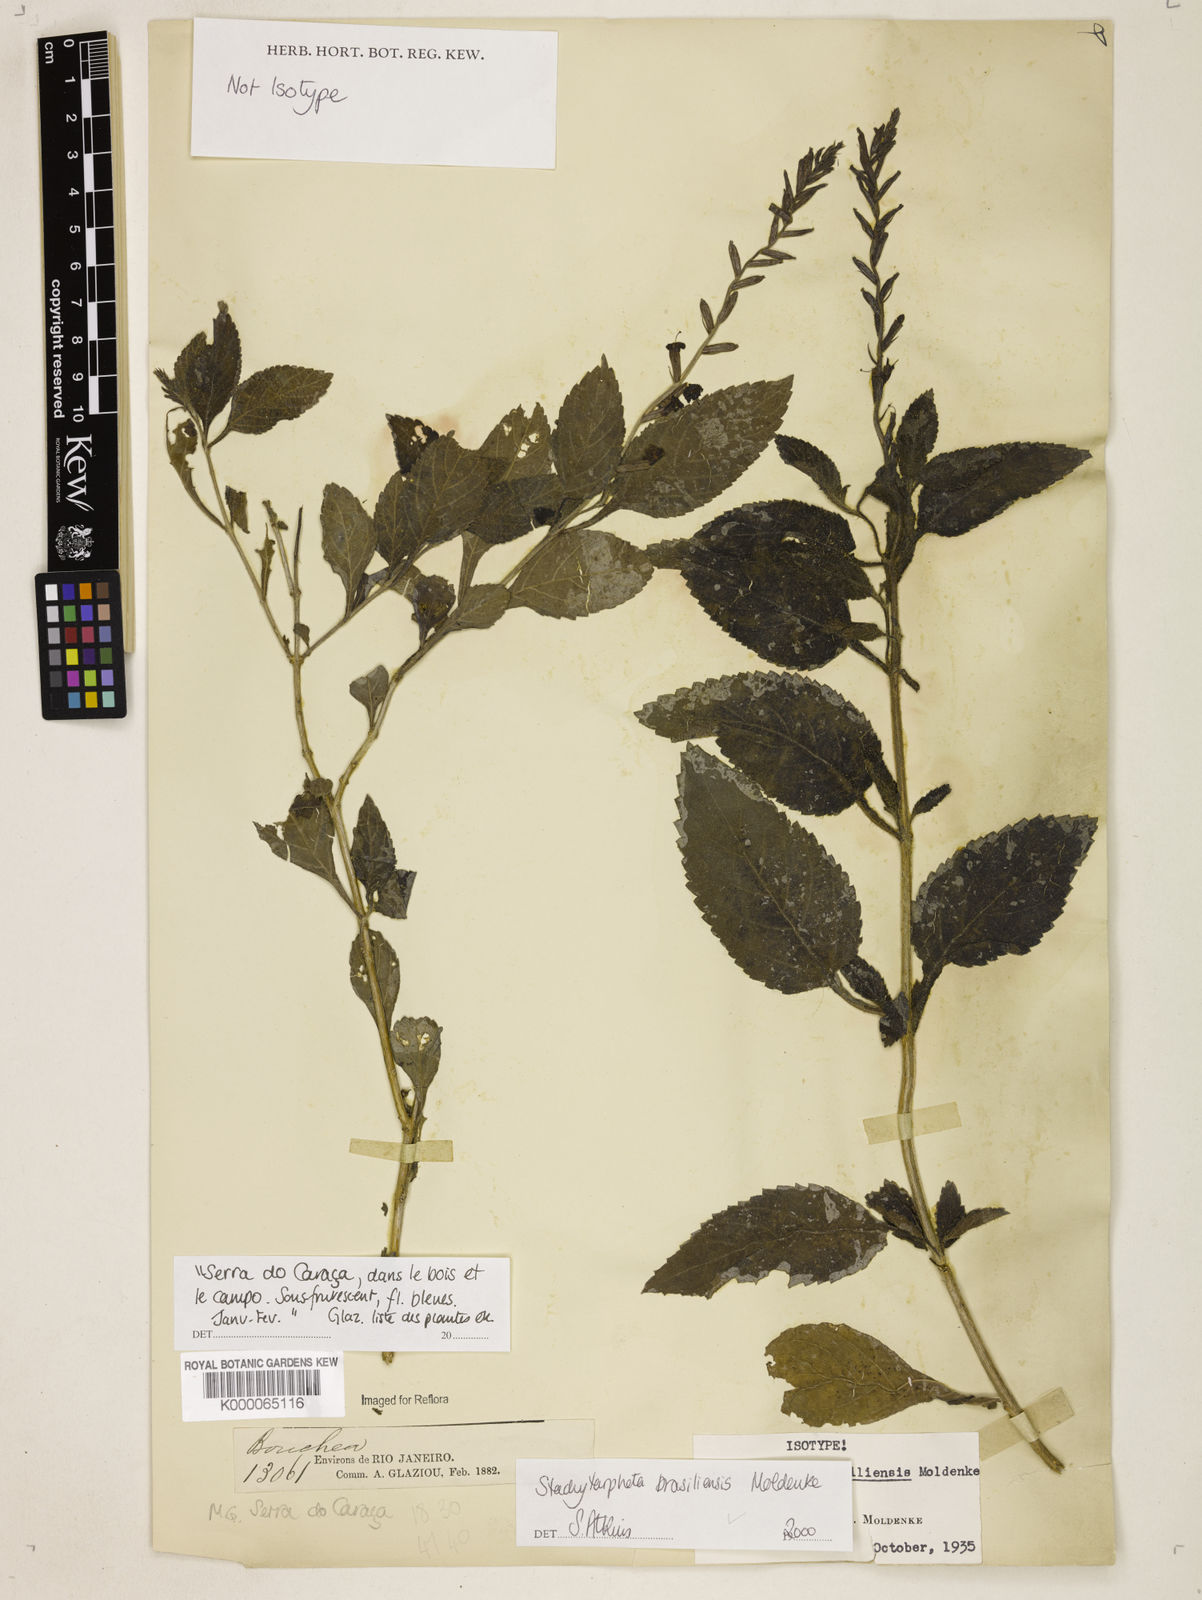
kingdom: Plantae
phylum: Tracheophyta
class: Magnoliopsida
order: Lamiales
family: Verbenaceae
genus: Stachytarpheta
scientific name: Stachytarpheta brasiliensis
